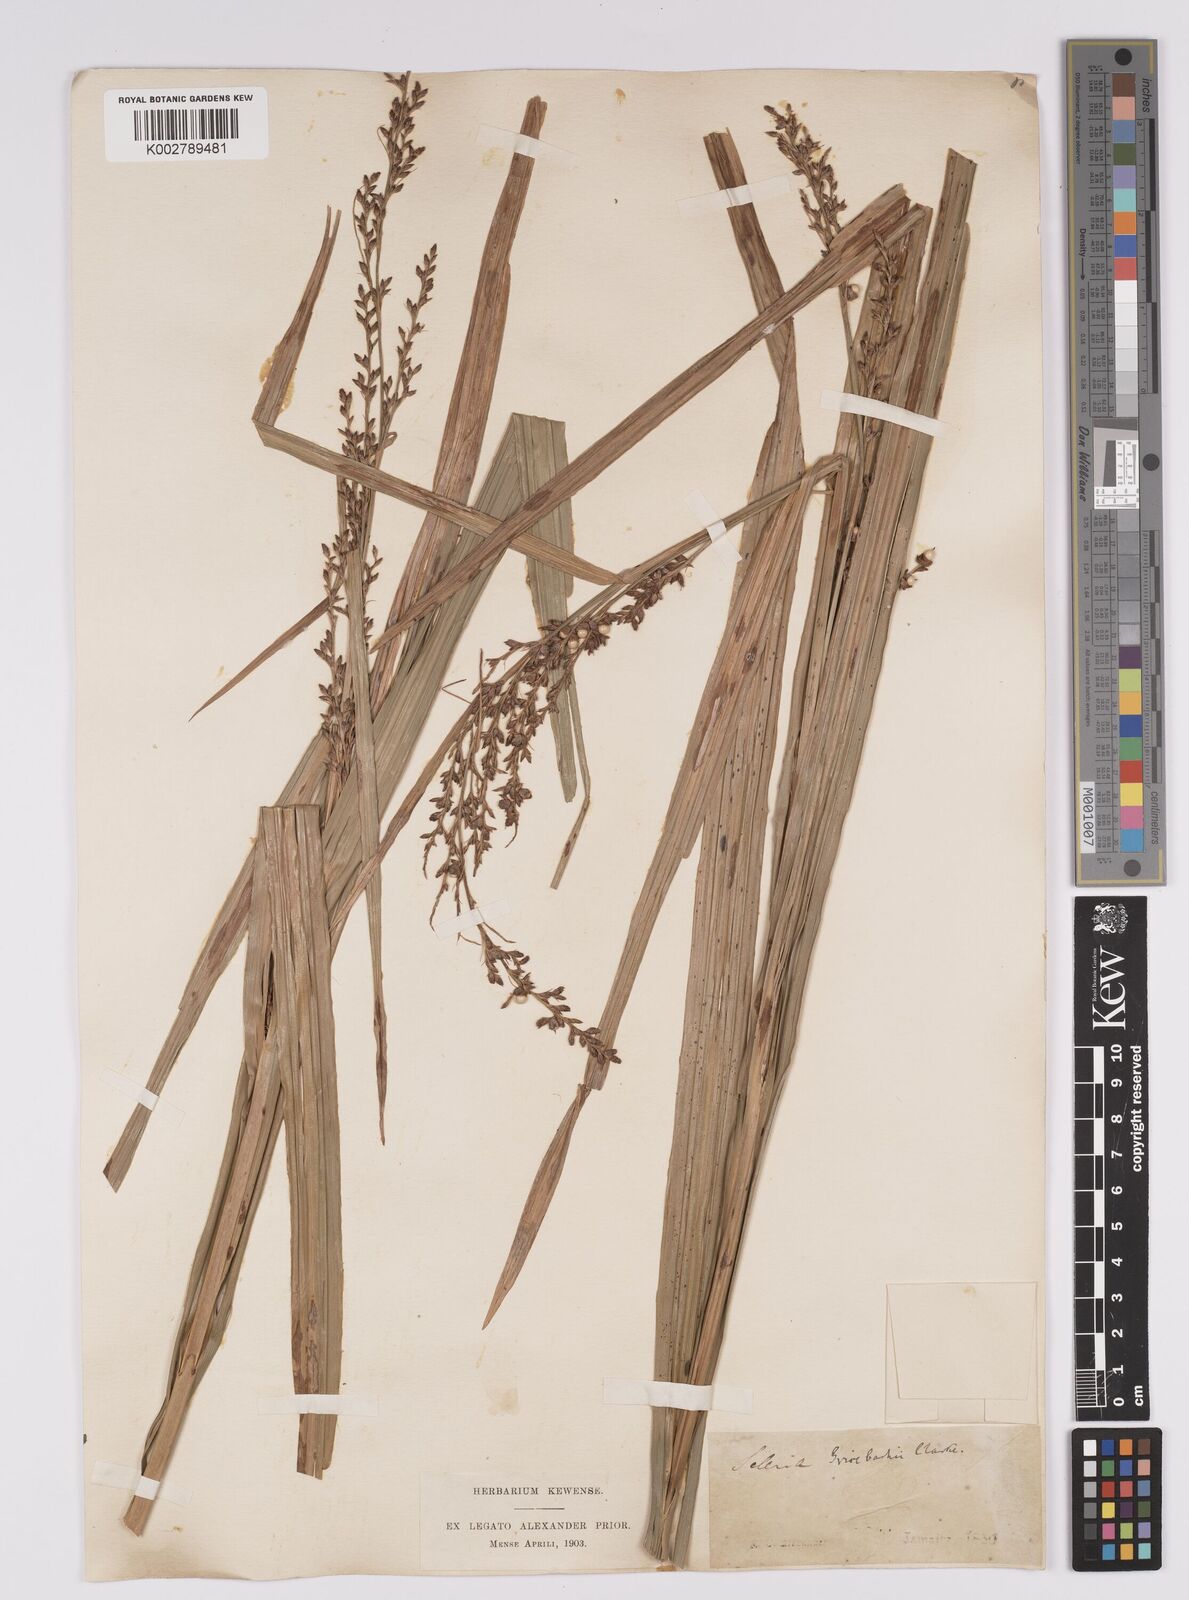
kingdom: Plantae
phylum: Tracheophyta
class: Liliopsida
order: Poales
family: Cyperaceae
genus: Scleria
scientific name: Scleria eggersiana
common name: Eggers' nutrush
